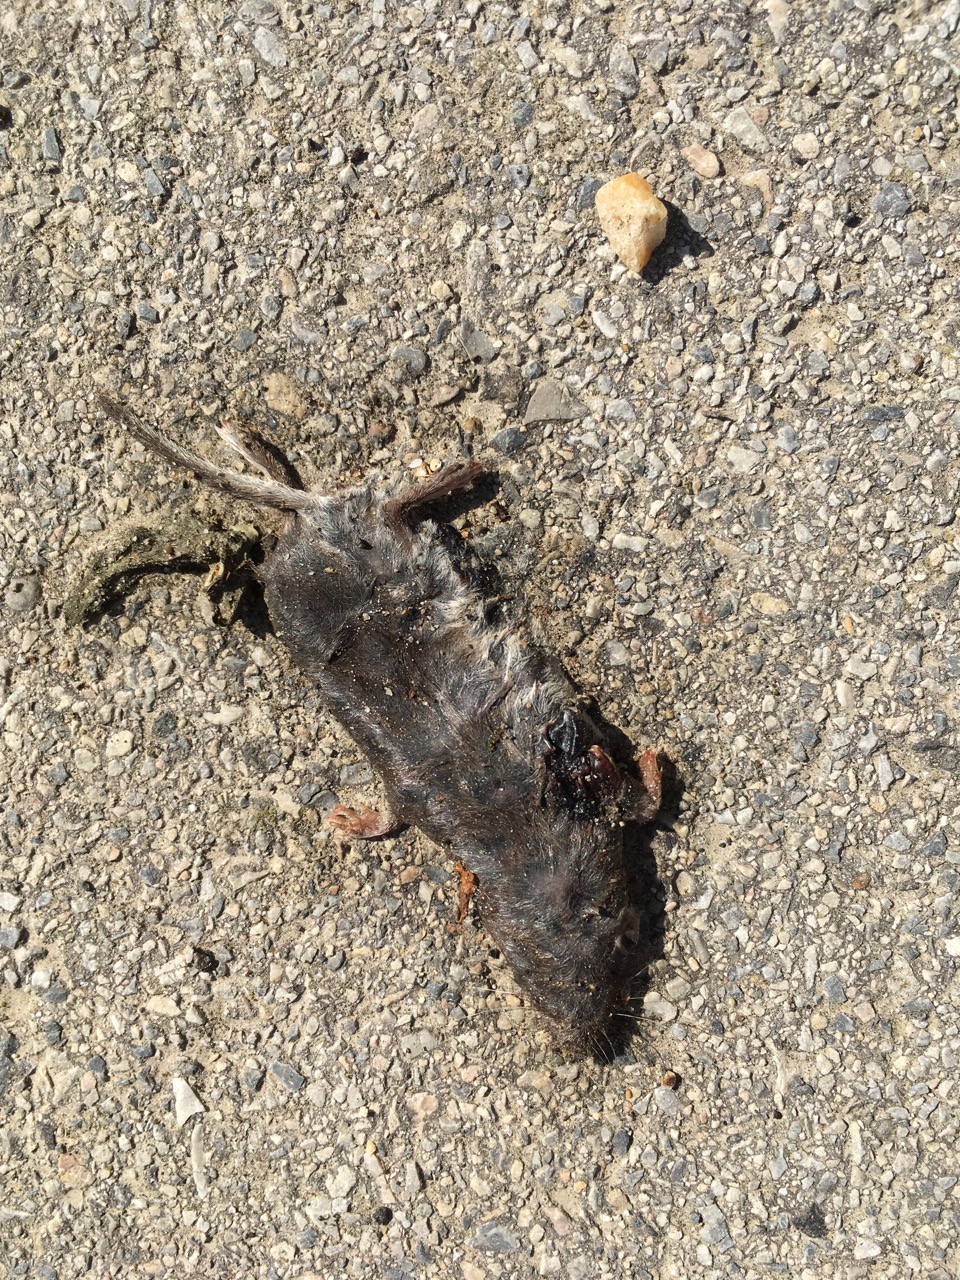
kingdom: Animalia
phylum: Chordata
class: Mammalia
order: Soricomorpha
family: Soricidae
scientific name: Soricidae
